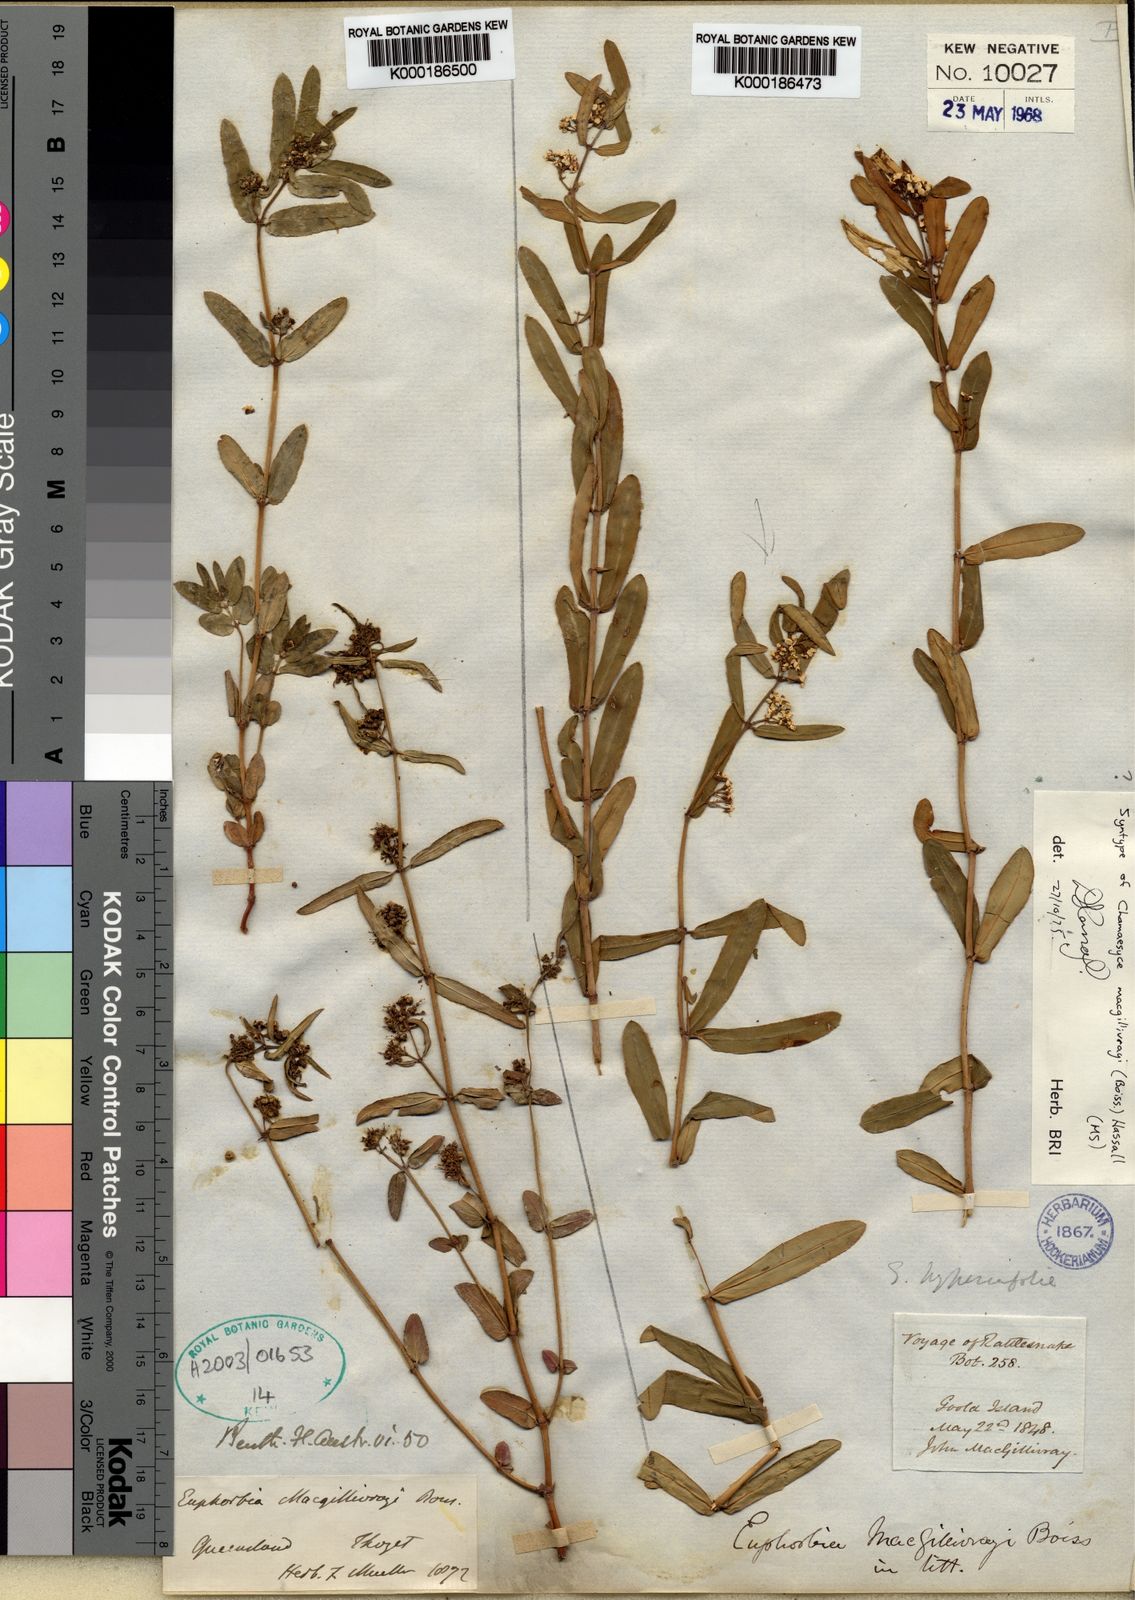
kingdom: Plantae
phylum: Tracheophyta
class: Magnoliopsida
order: Malpighiales
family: Euphorbiaceae
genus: Euphorbia
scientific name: Euphorbia bifida
